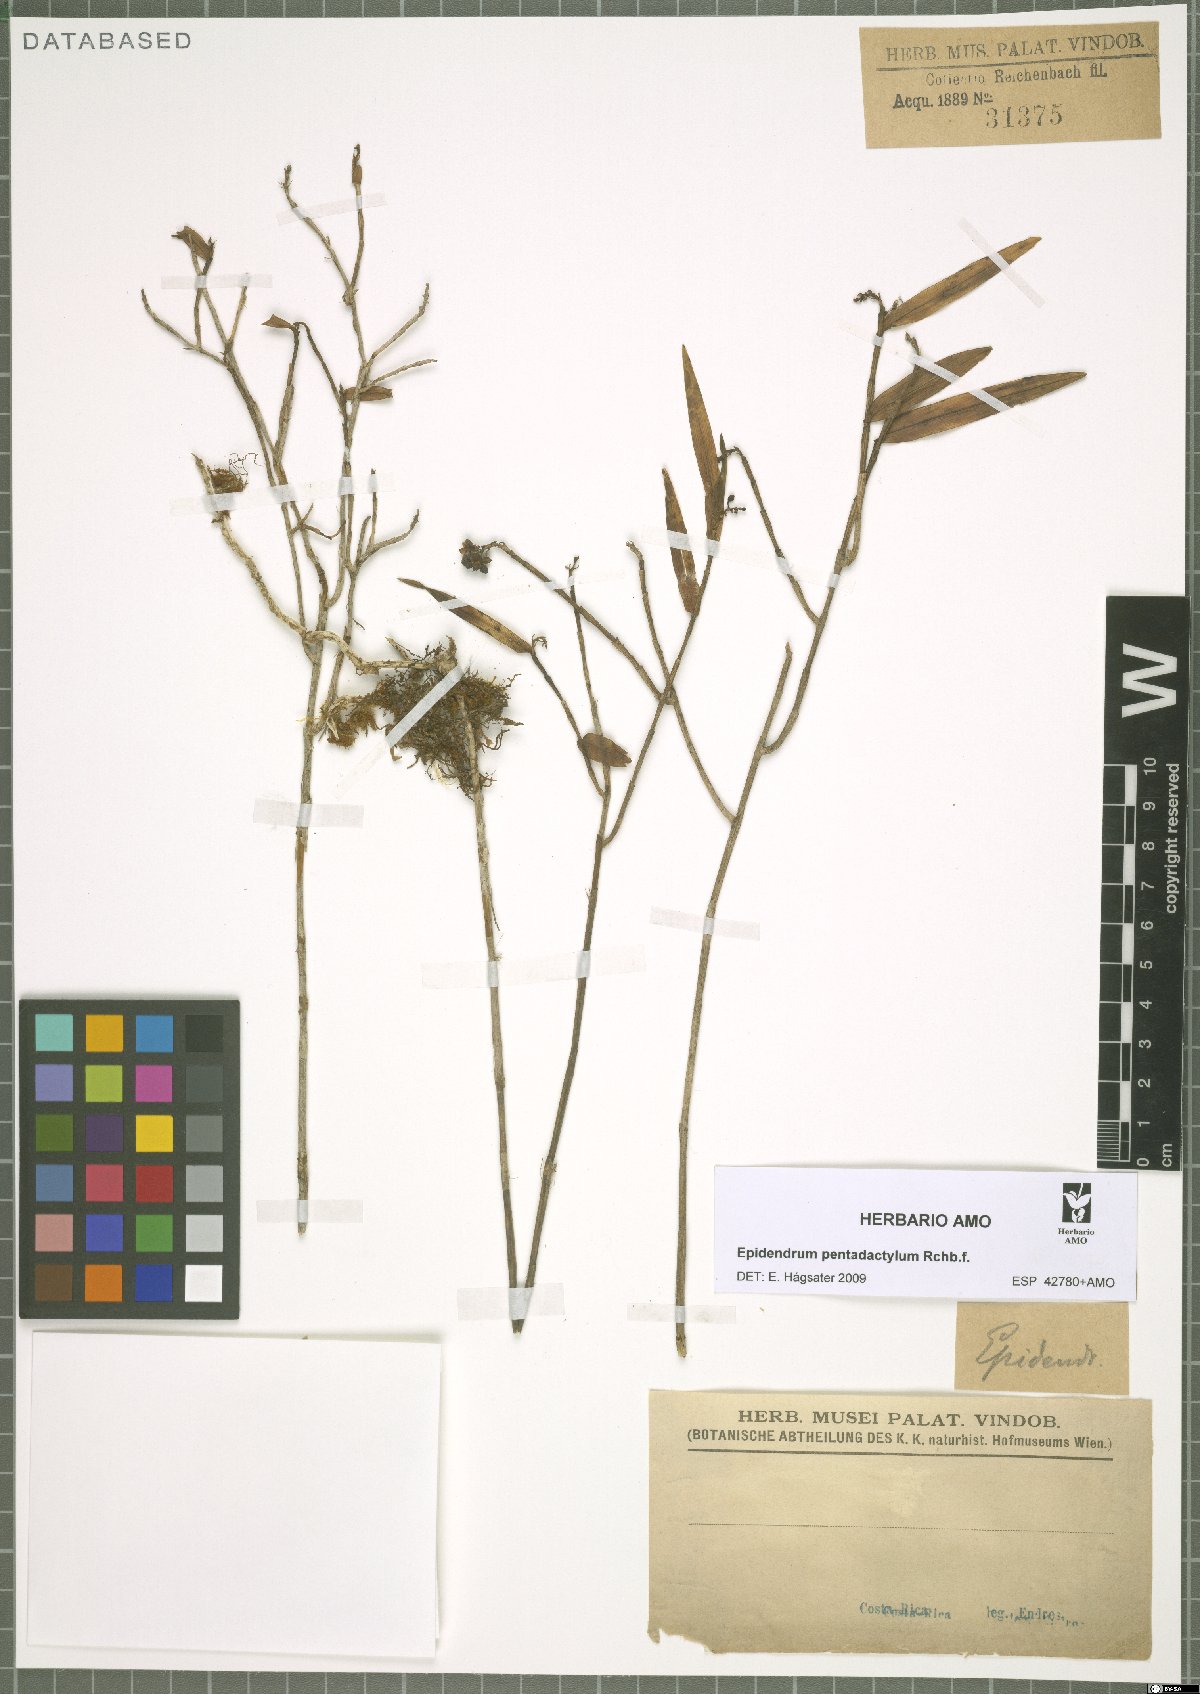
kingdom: Plantae
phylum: Tracheophyta
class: Liliopsida
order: Asparagales
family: Orchidaceae
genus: Epidendrum
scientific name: Epidendrum pentadactylum
